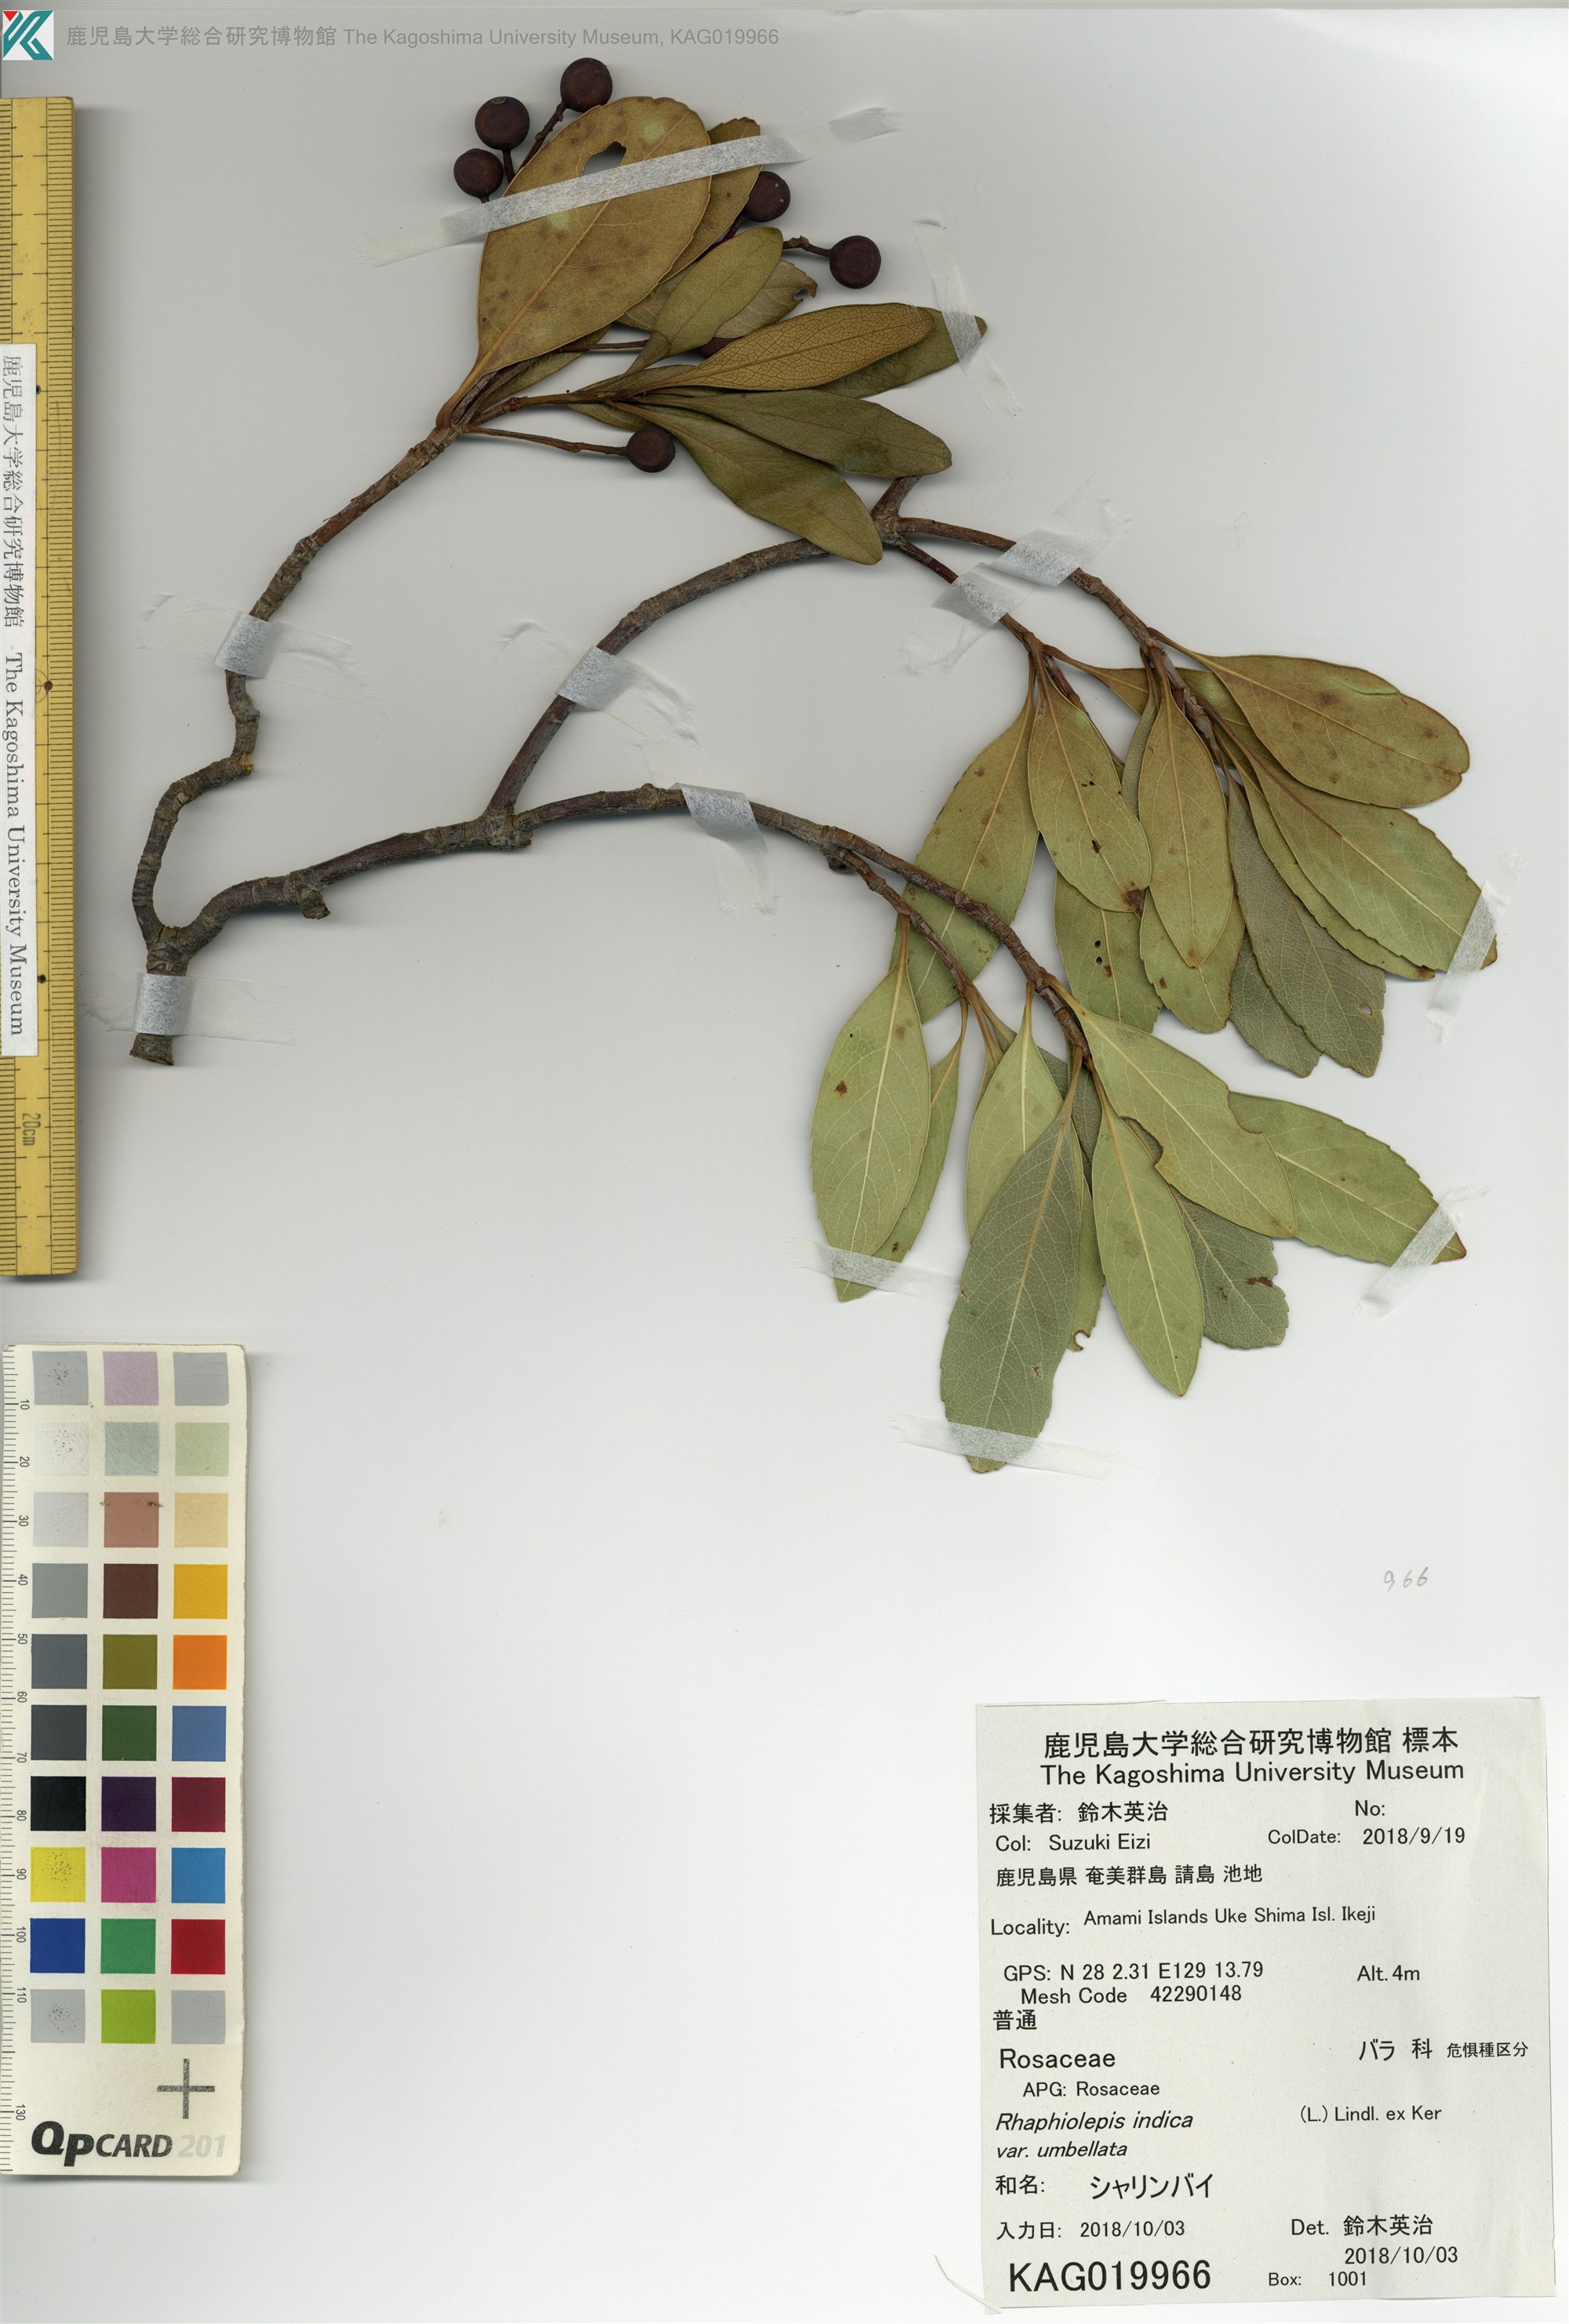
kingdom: Plantae
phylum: Tracheophyta
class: Magnoliopsida
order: Rosales
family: Rosaceae
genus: Rhaphiolepis
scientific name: Rhaphiolepis umbellata
